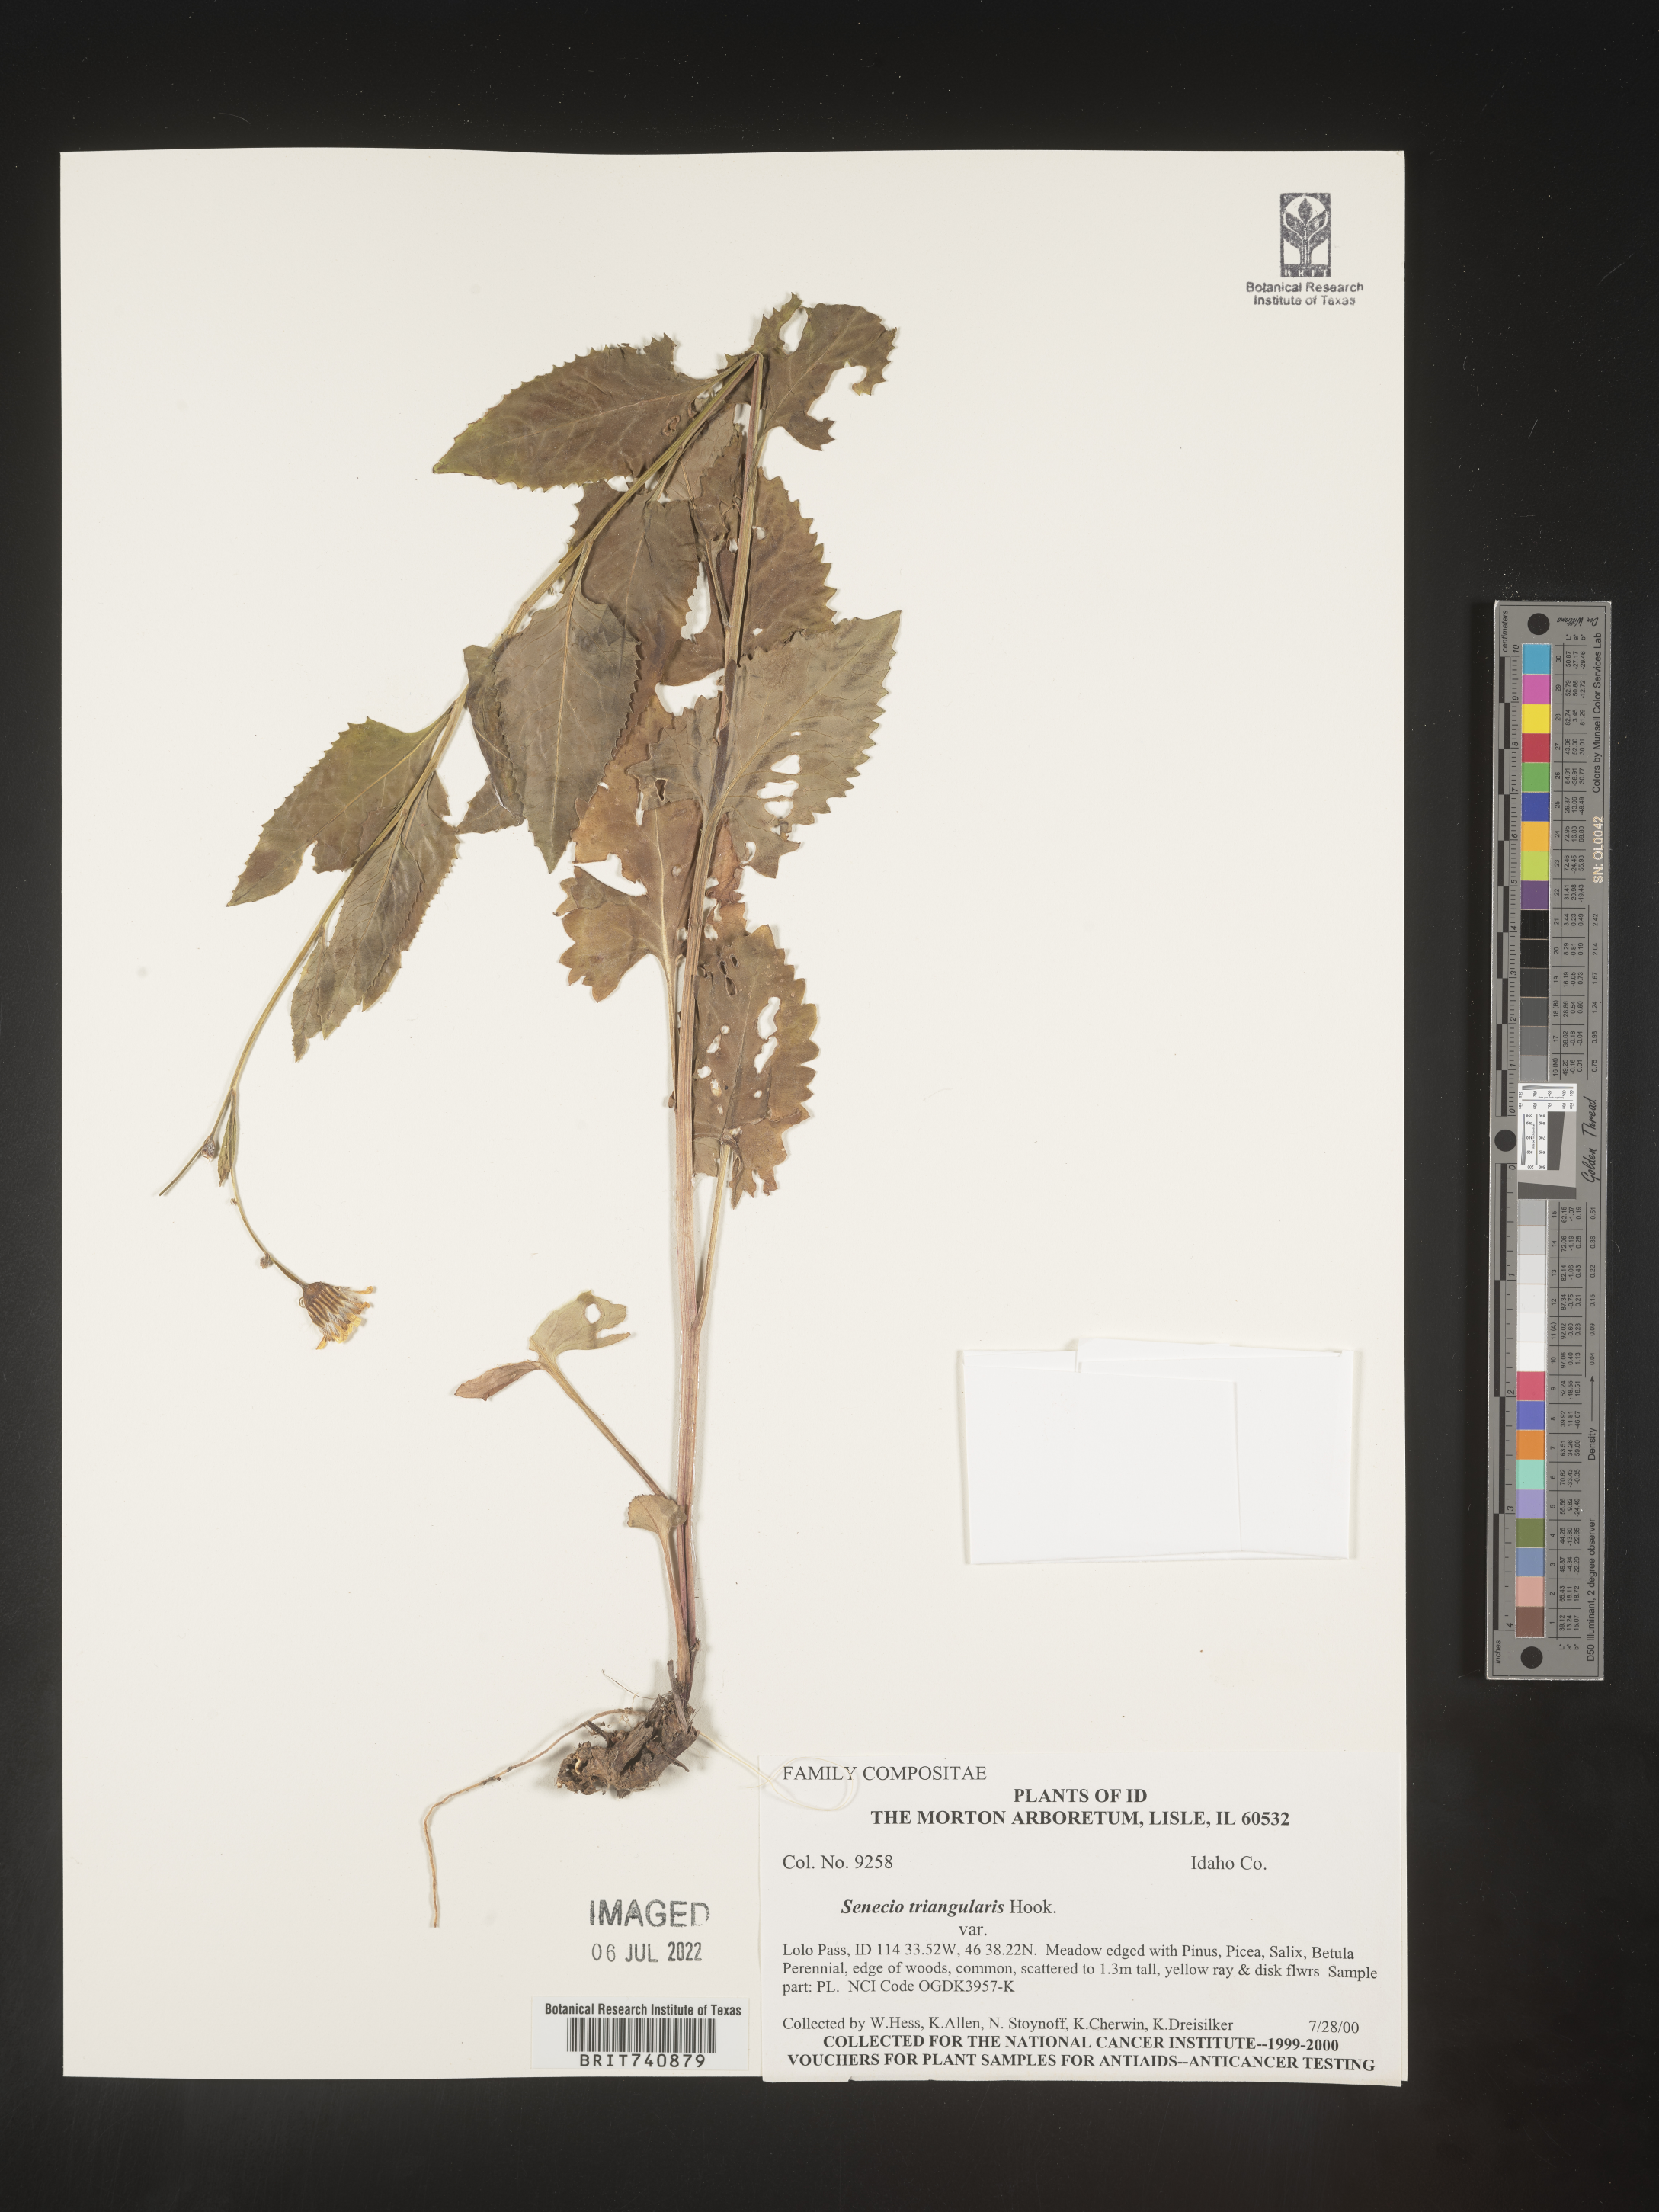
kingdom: Plantae
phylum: Tracheophyta
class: Magnoliopsida
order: Asterales
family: Asteraceae
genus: Senecio
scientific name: Senecio triangularis
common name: Arrowleaf butterweed
